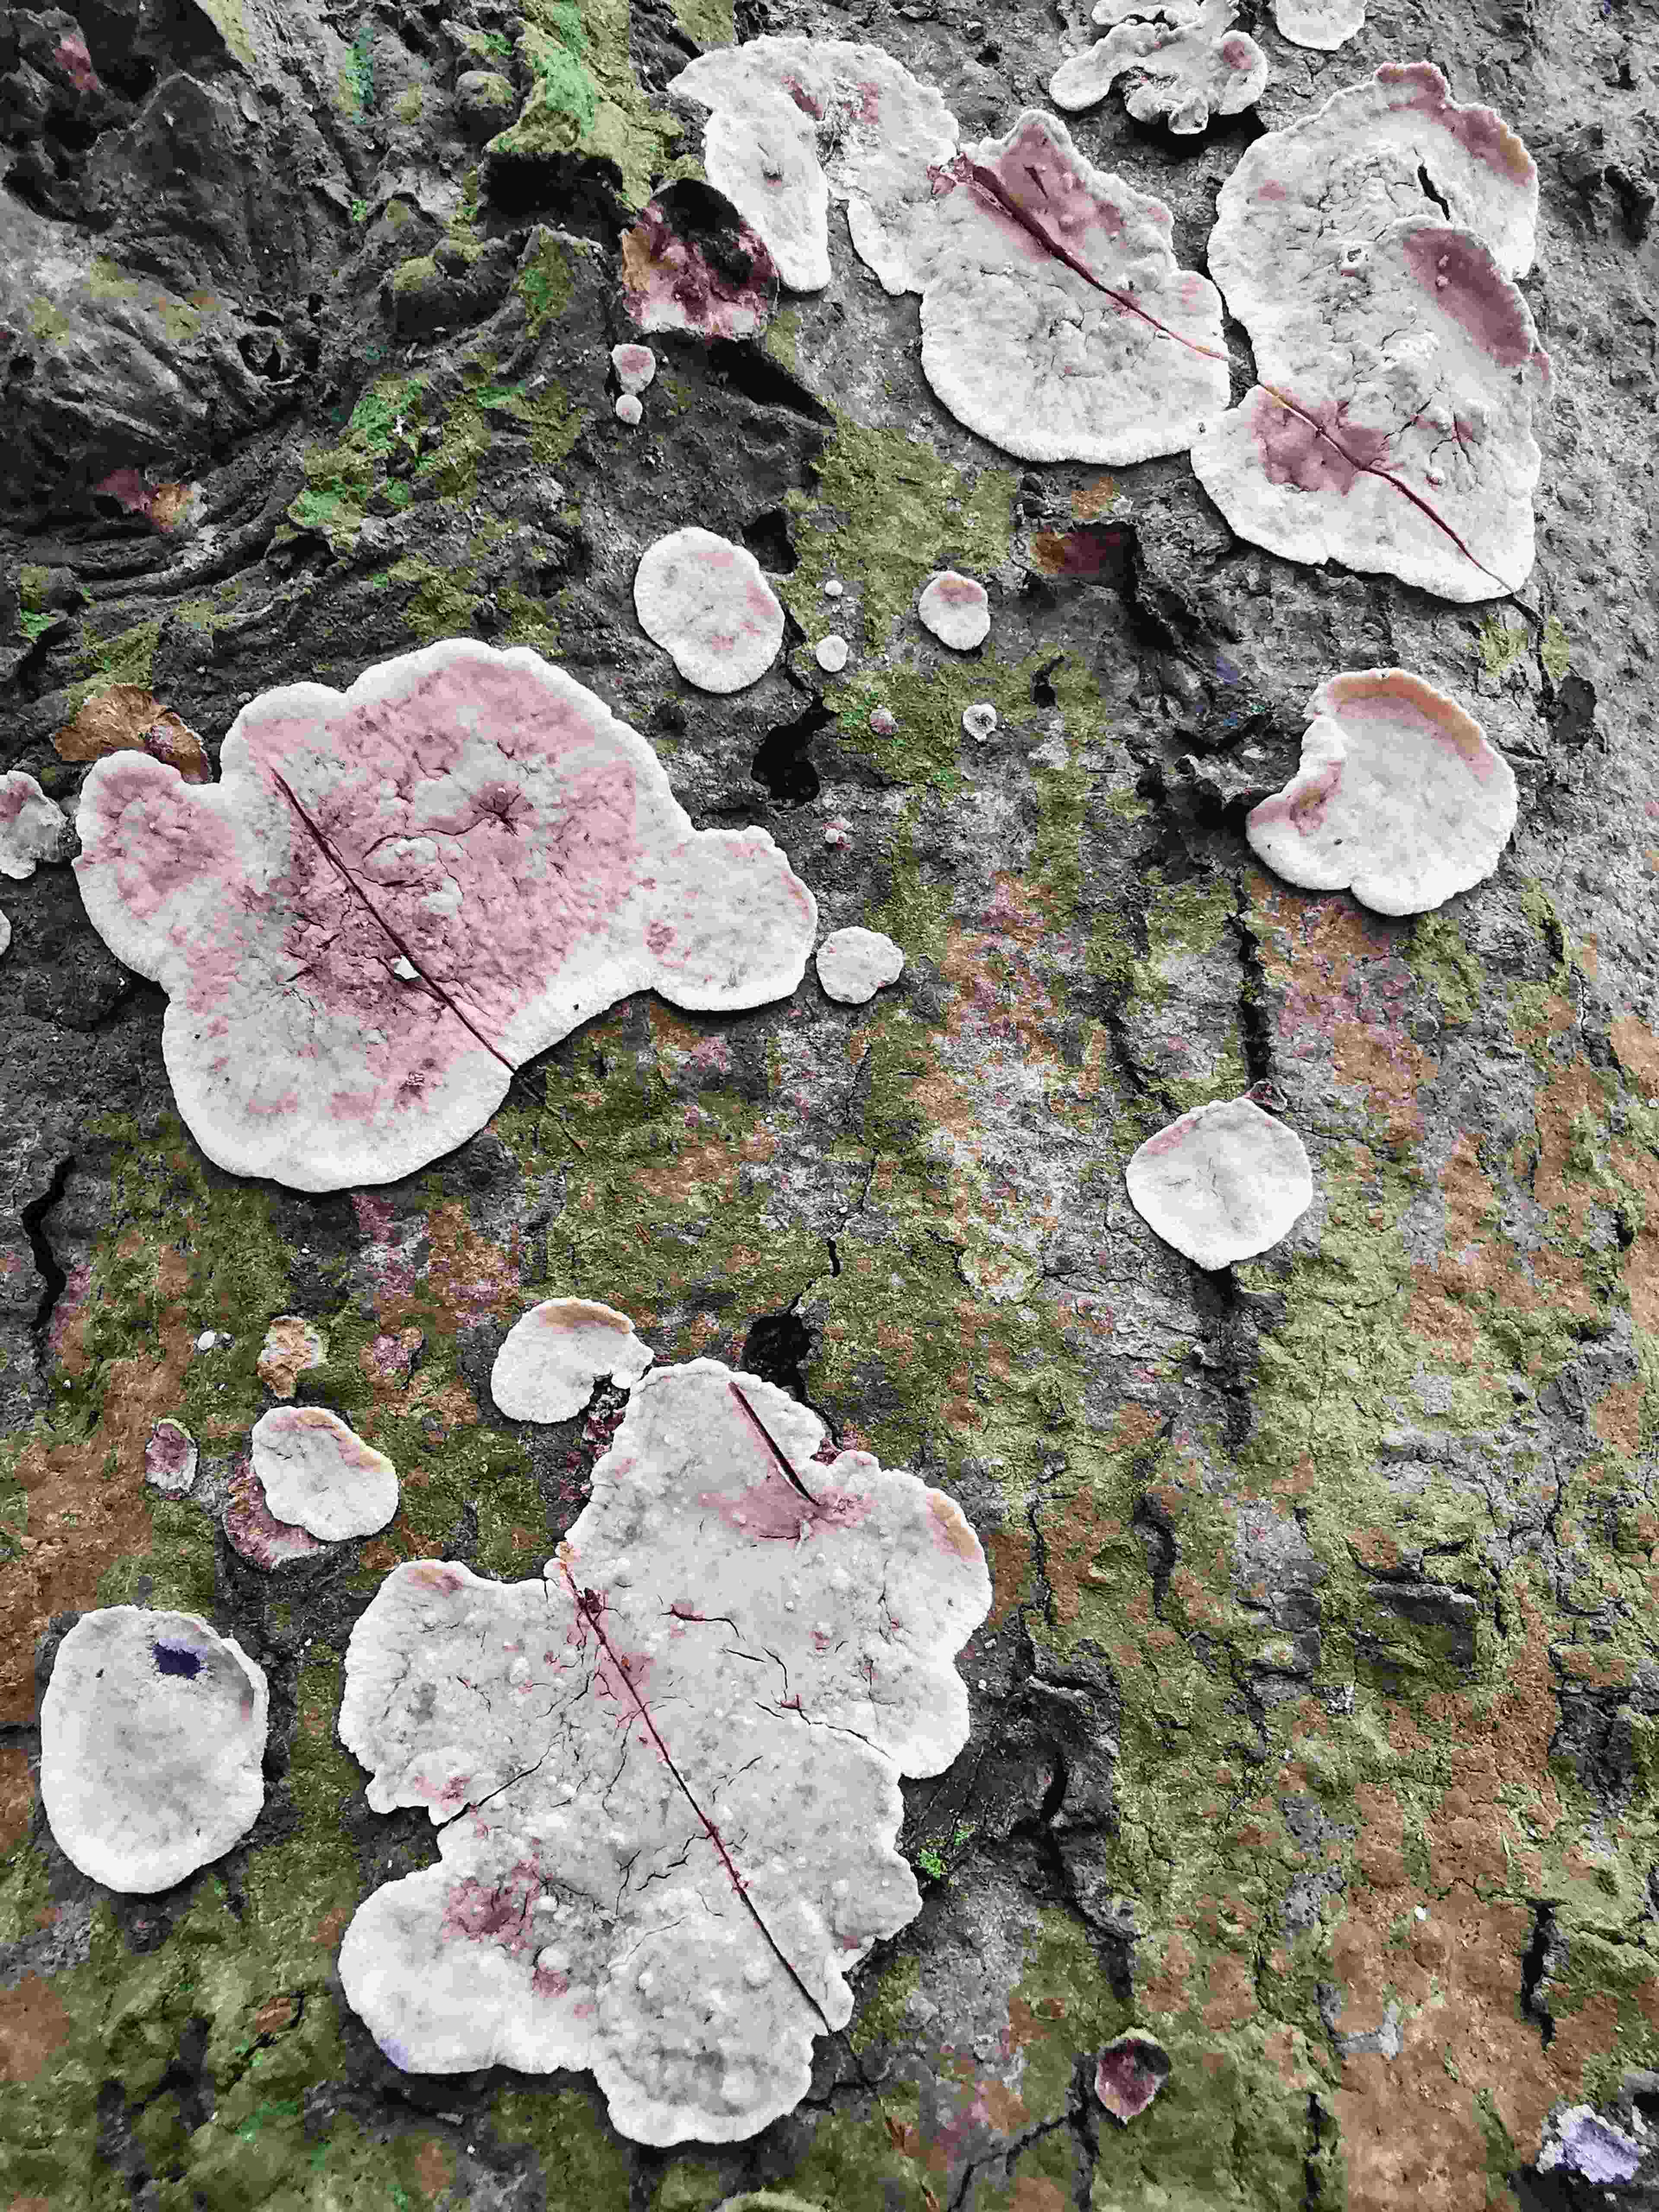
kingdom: Fungi
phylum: Basidiomycota
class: Agaricomycetes
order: Russulales
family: Stereaceae
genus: Stereum
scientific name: Stereum rugosum
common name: rynket lædersvamp
